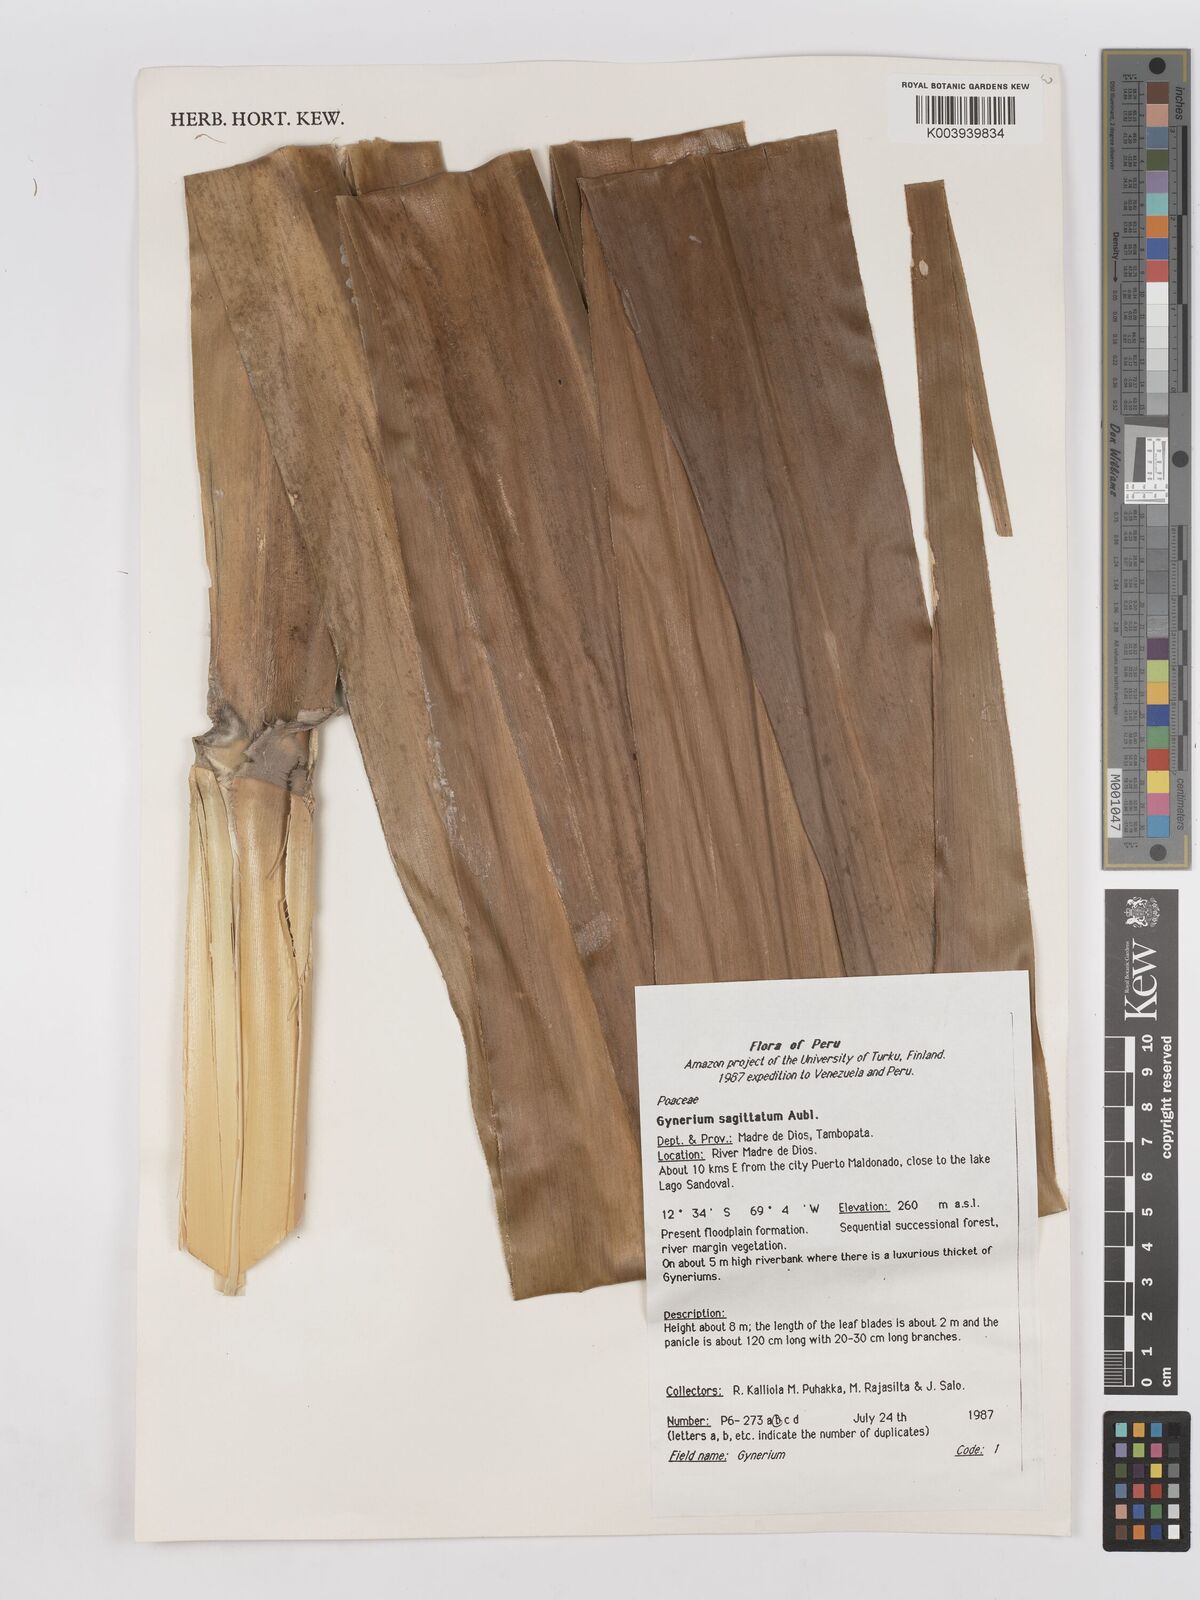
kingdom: Plantae
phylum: Tracheophyta
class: Liliopsida
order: Poales
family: Poaceae
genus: Gynerium
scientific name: Gynerium sagittatum
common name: Wild cane
